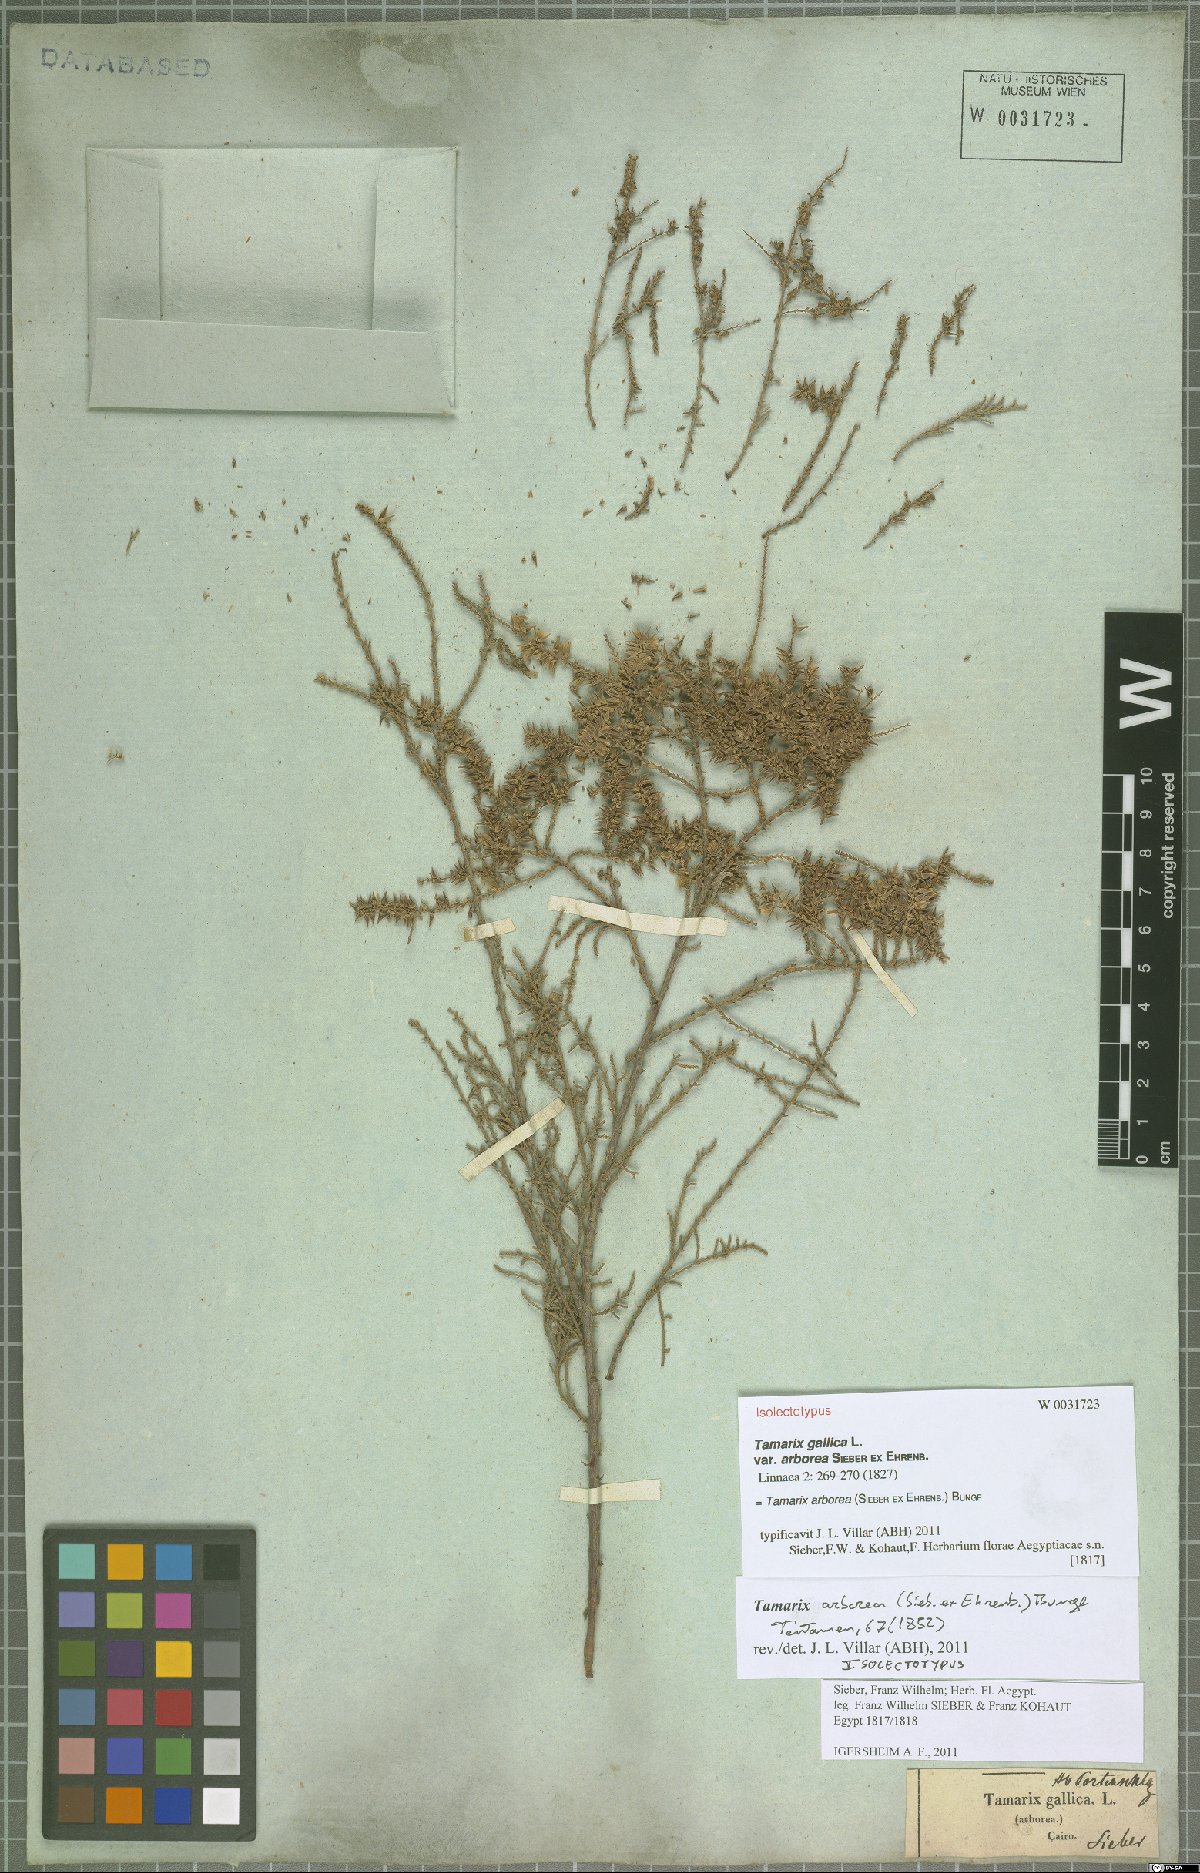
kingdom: Plantae
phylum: Tracheophyta
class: Magnoliopsida
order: Caryophyllales
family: Tamaricaceae
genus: Tamarix
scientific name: Tamarix arborea
